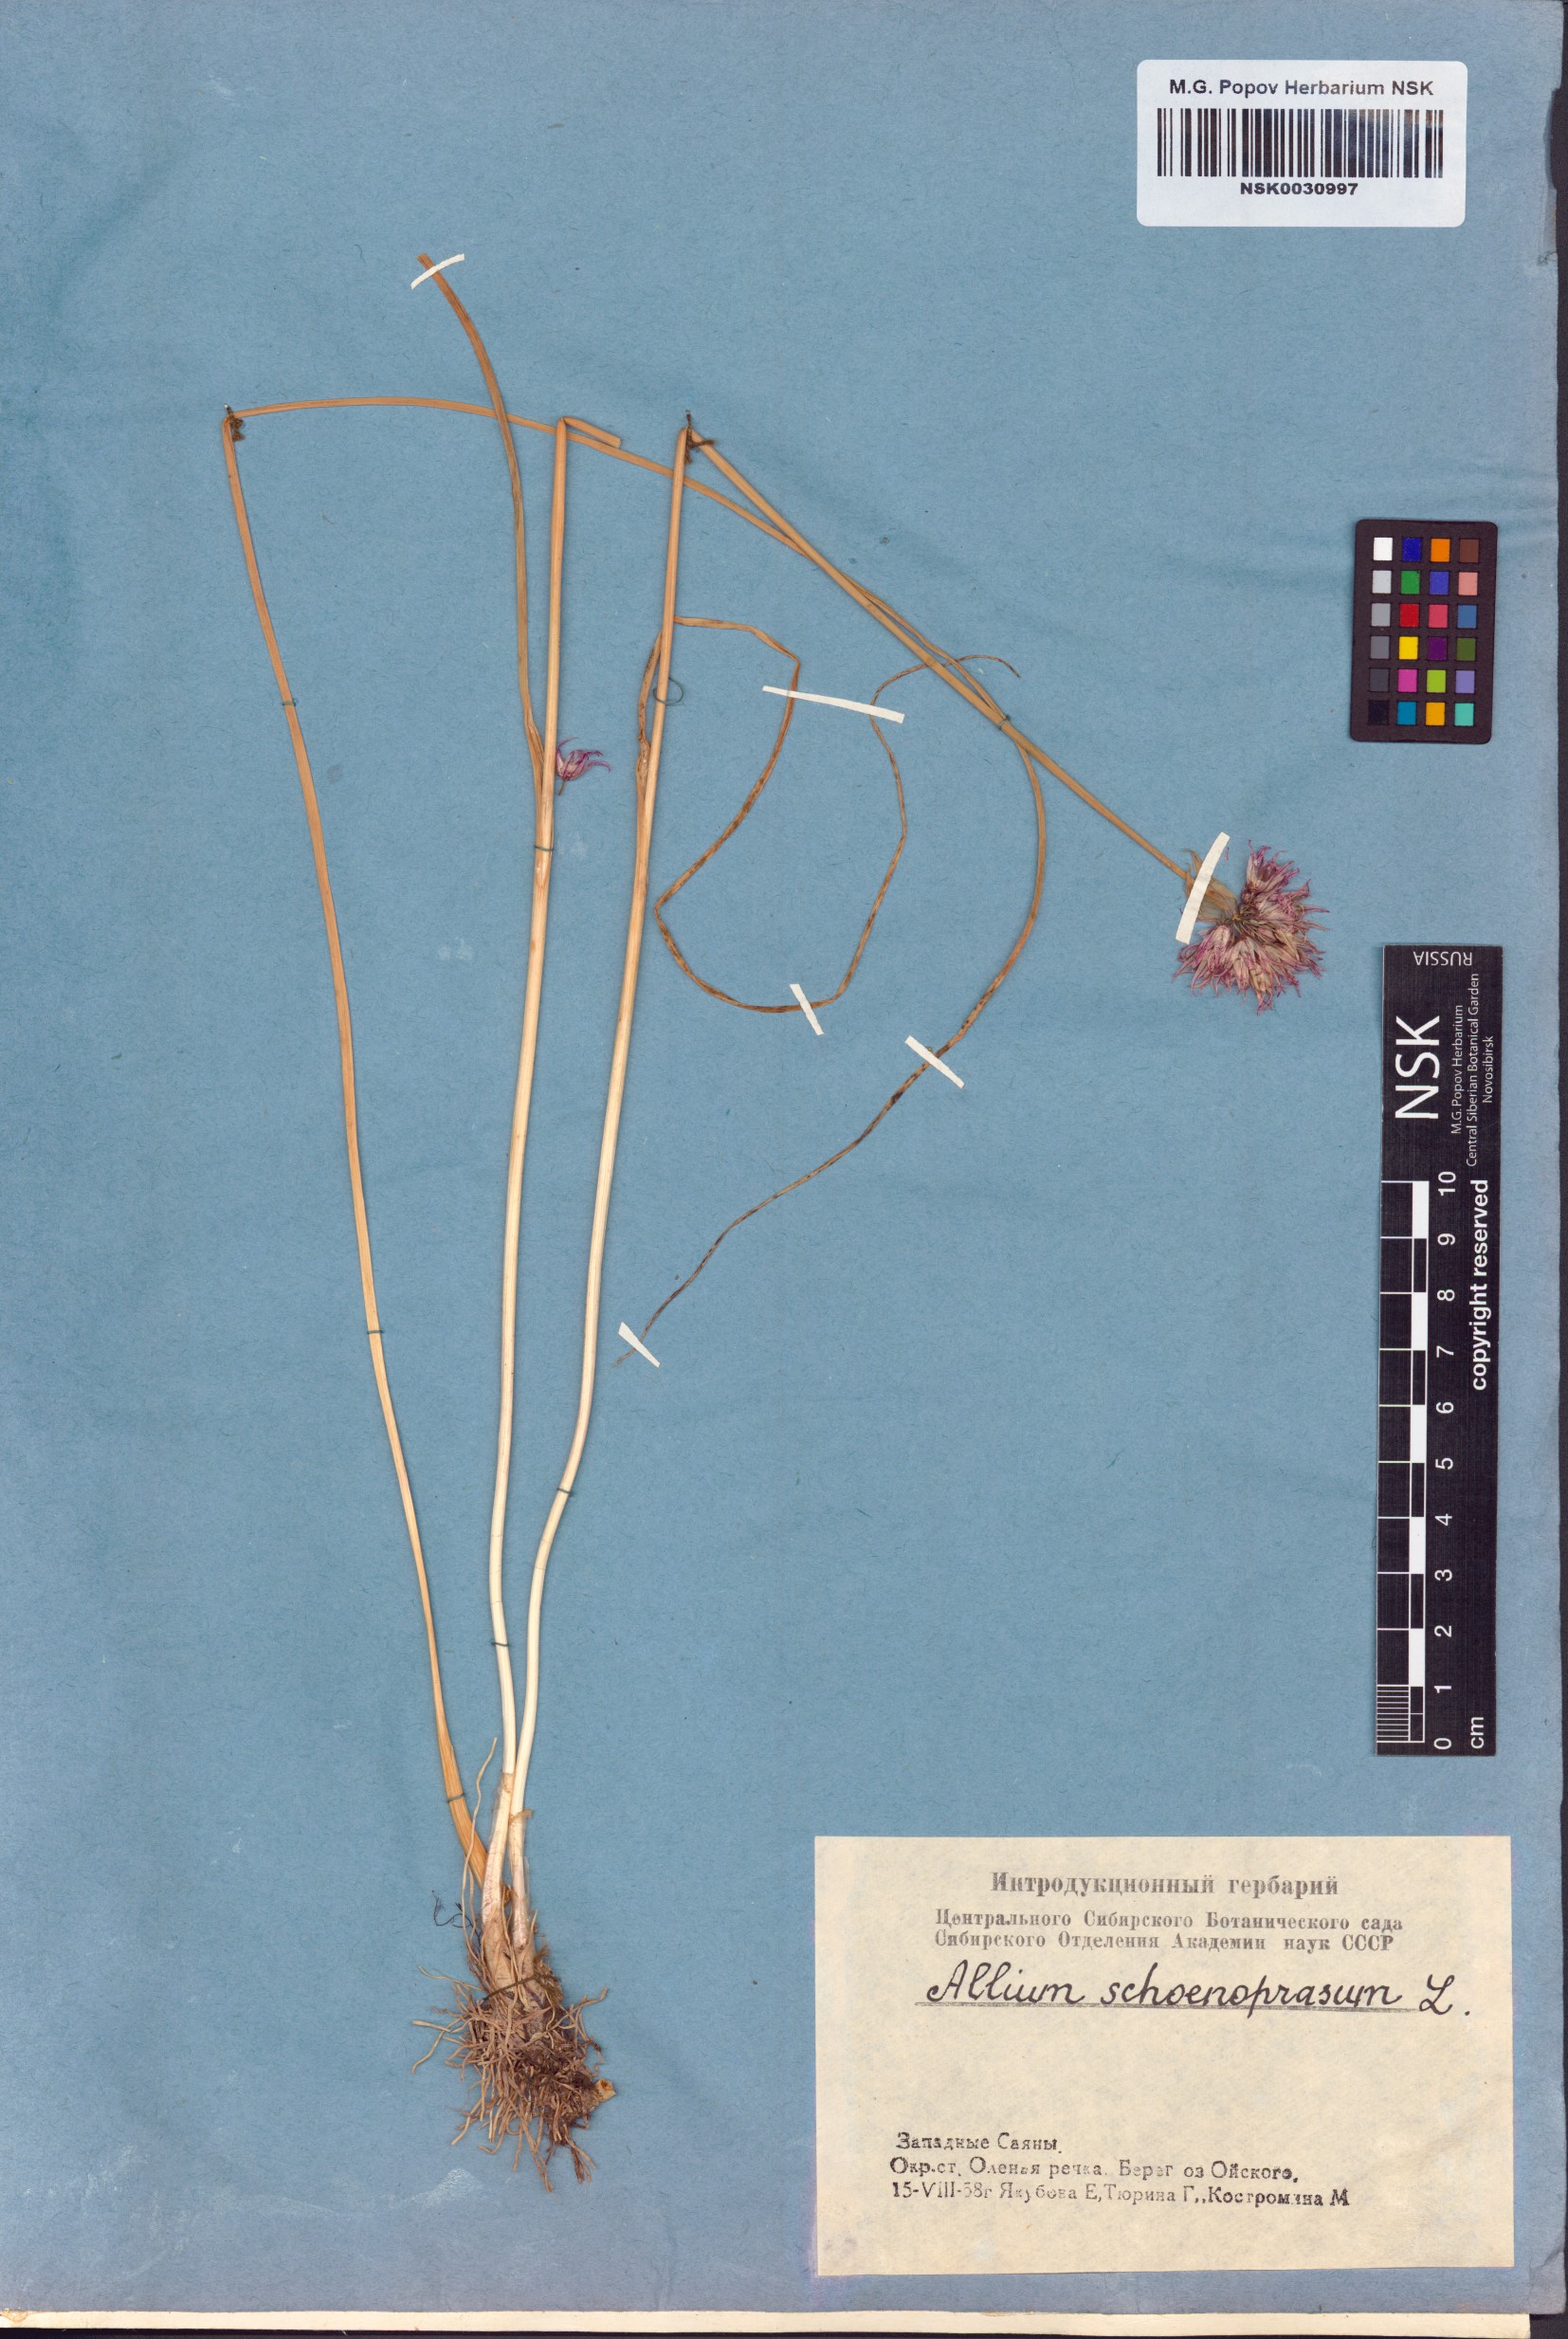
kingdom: Plantae
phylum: Tracheophyta
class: Liliopsida
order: Asparagales
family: Amaryllidaceae
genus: Allium
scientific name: Allium schoenoprasum
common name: Chives
